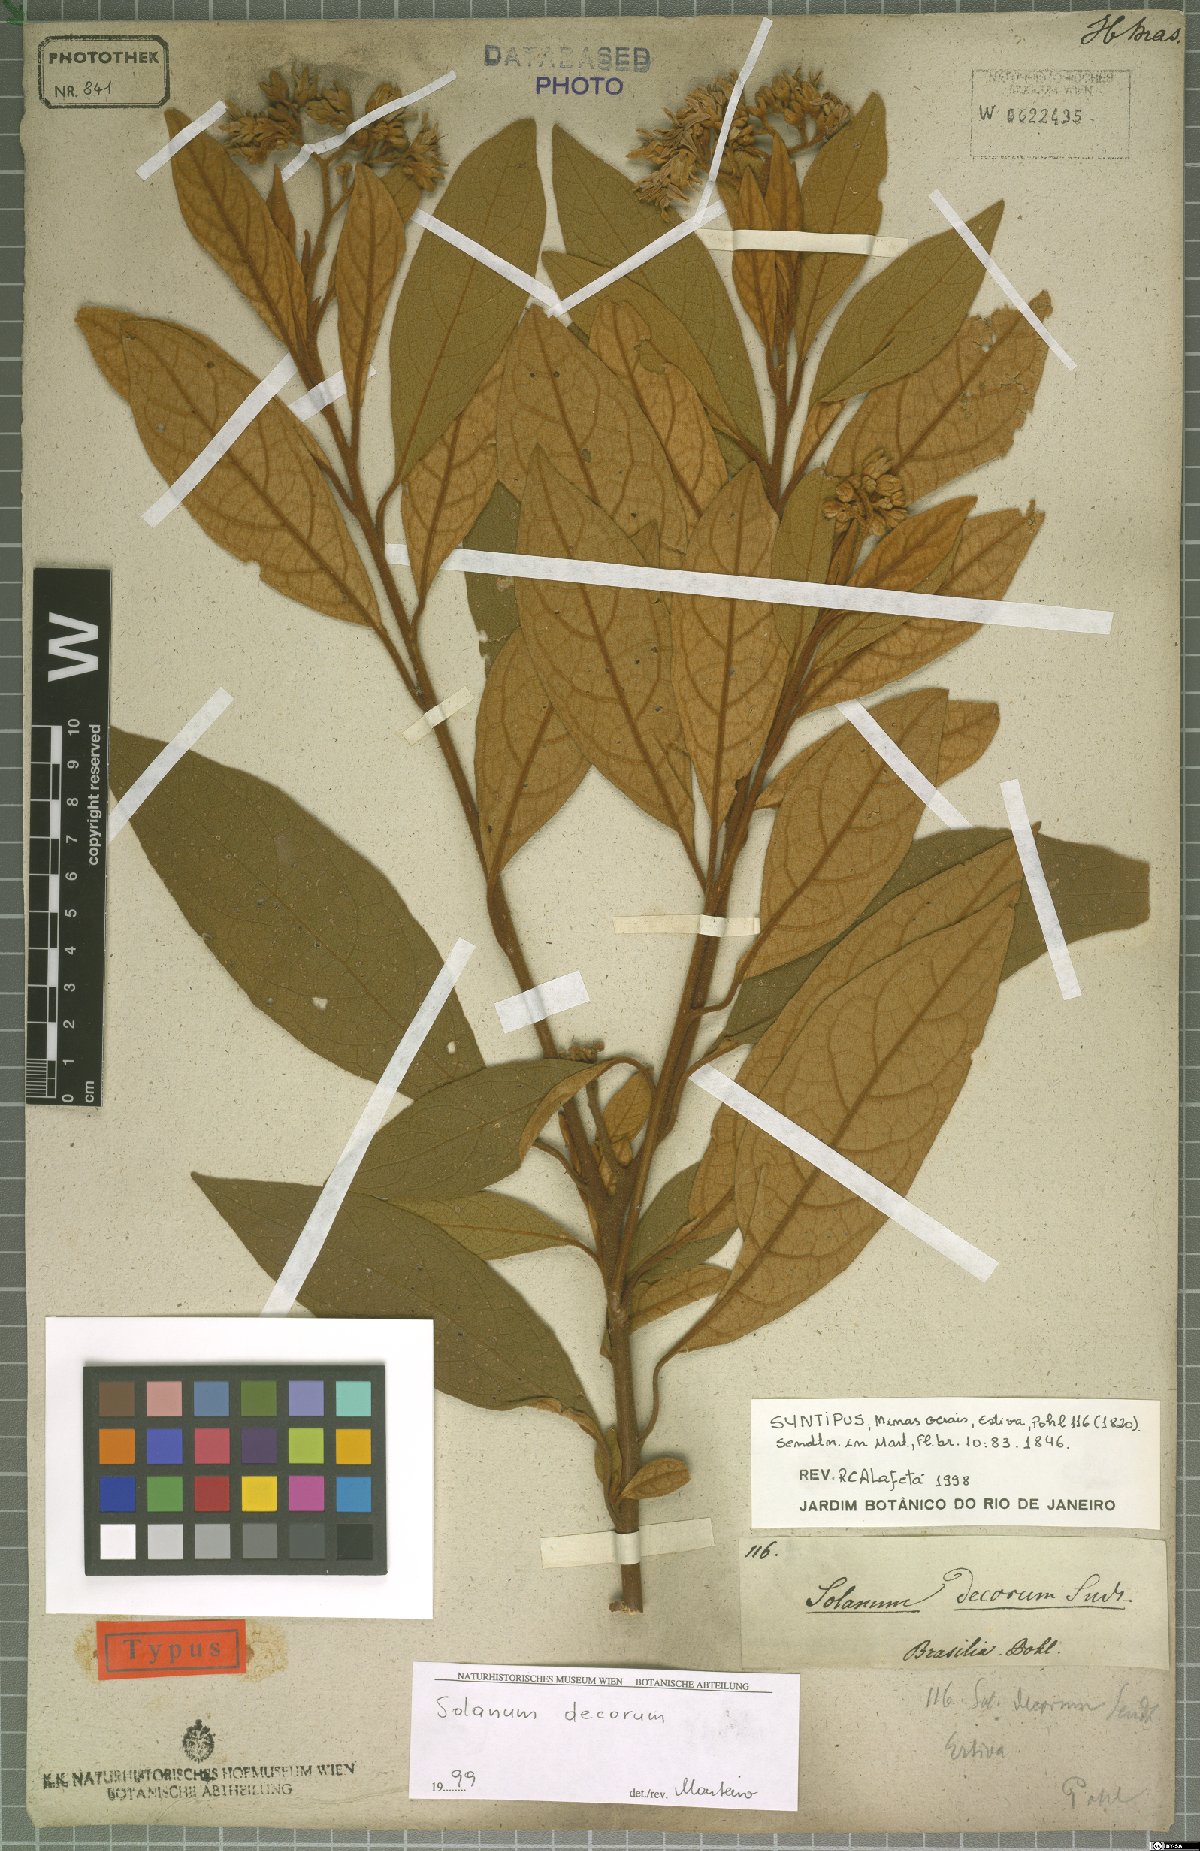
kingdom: Plantae
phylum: Tracheophyta
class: Magnoliopsida
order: Solanales
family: Solanaceae
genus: Solanum
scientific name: Solanum decorum
